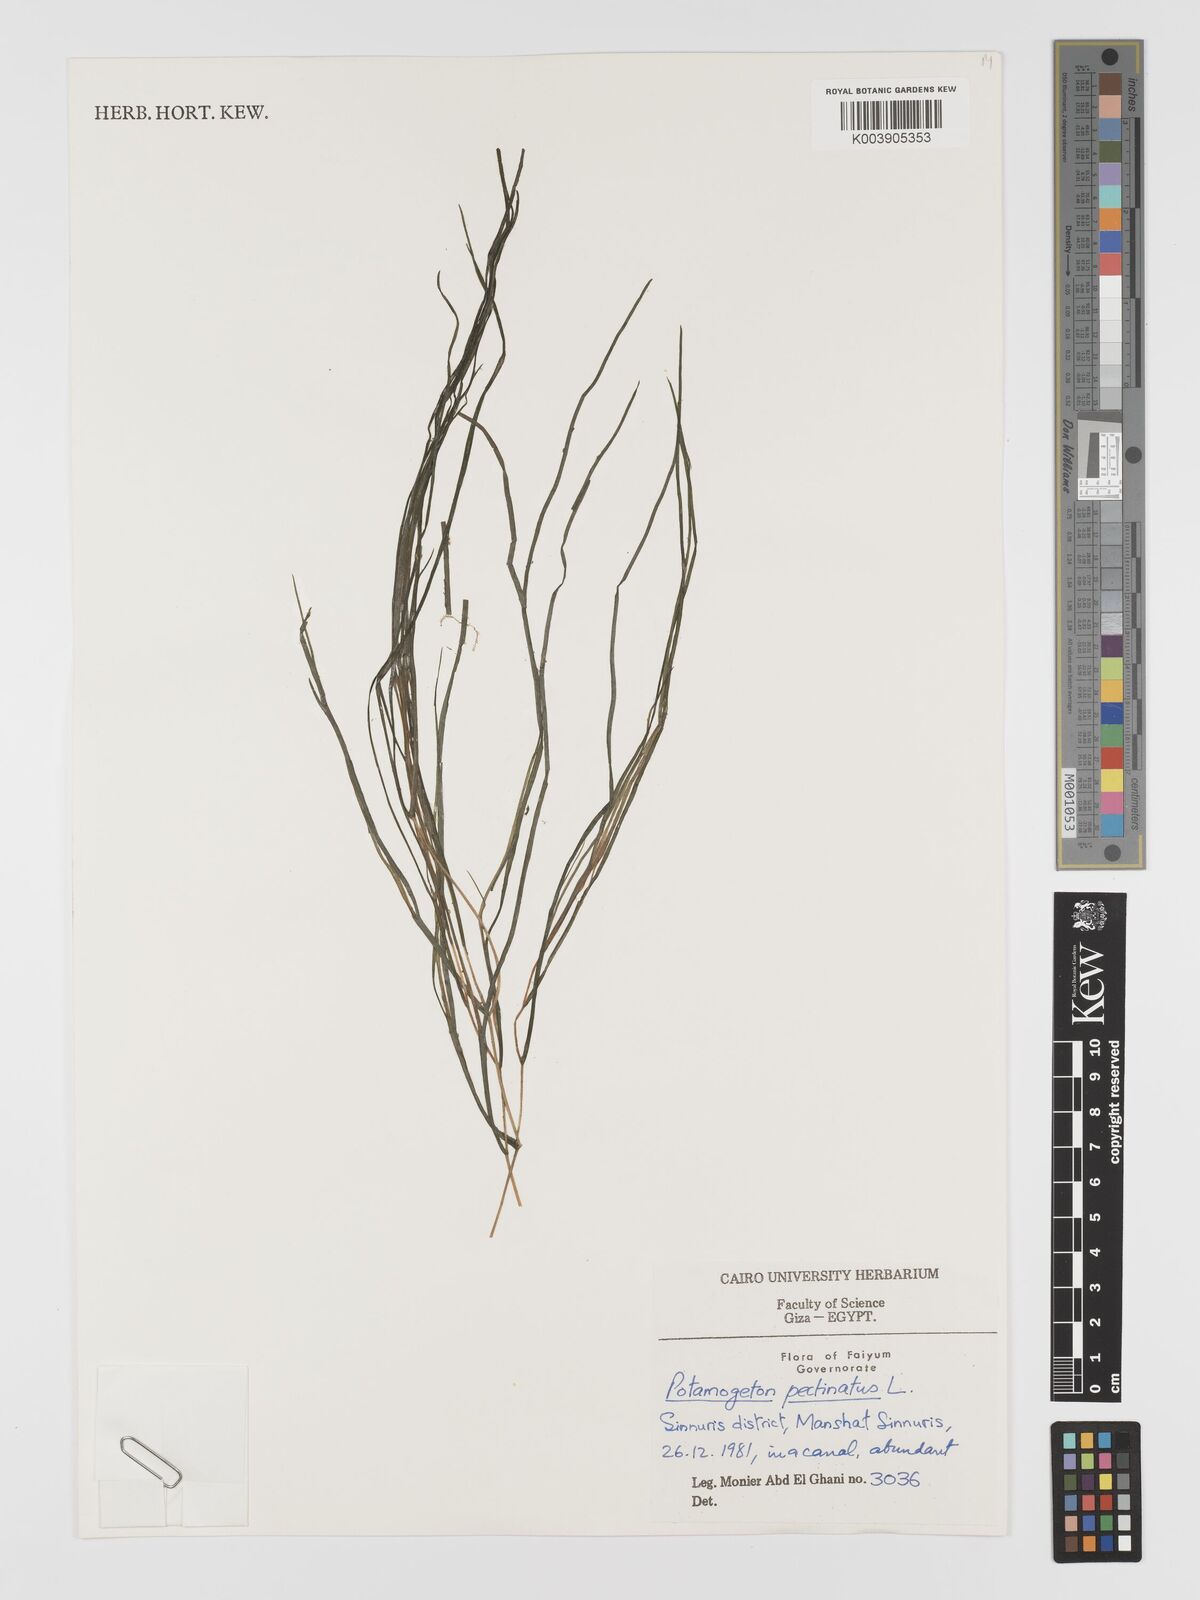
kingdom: Plantae
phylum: Tracheophyta
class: Liliopsida
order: Alismatales
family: Potamogetonaceae
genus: Stuckenia
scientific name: Stuckenia pectinata
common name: Sago pondweed
